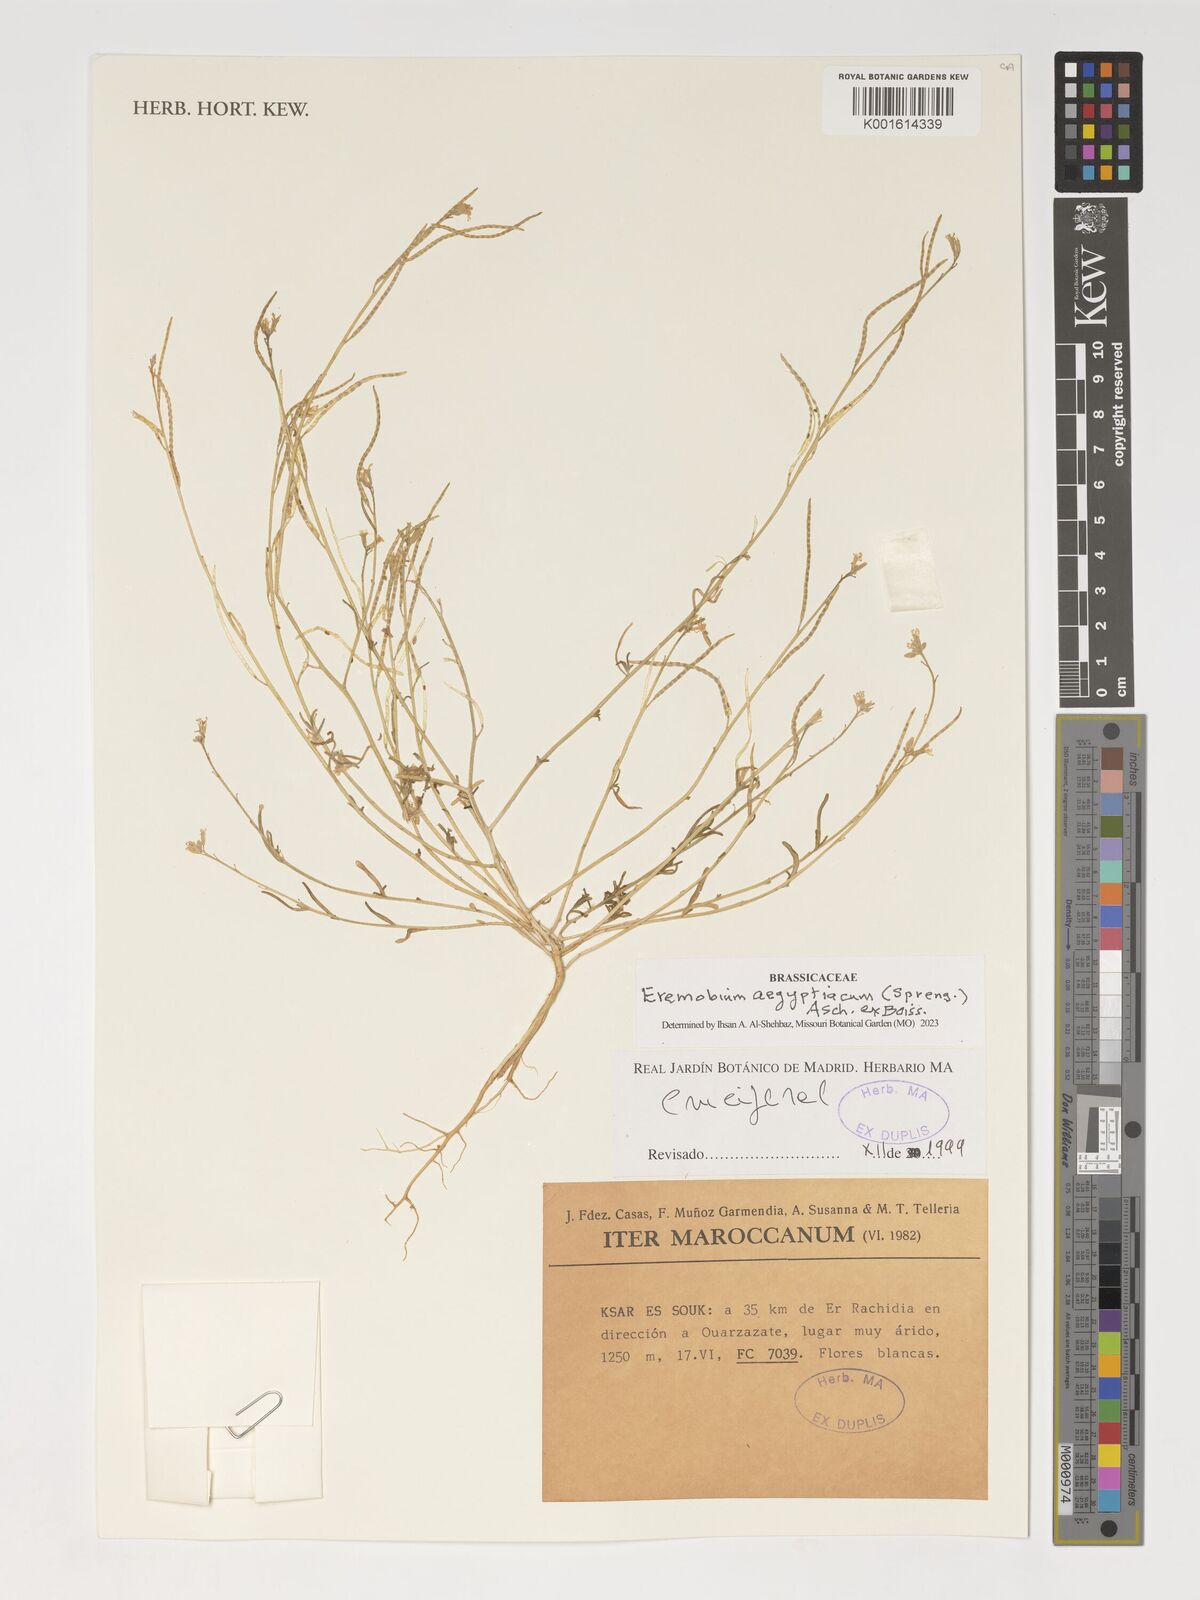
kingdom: Plantae
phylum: Tracheophyta
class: Magnoliopsida
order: Brassicales
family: Brassicaceae
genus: Eremobium
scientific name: Eremobium aegyptiacum
